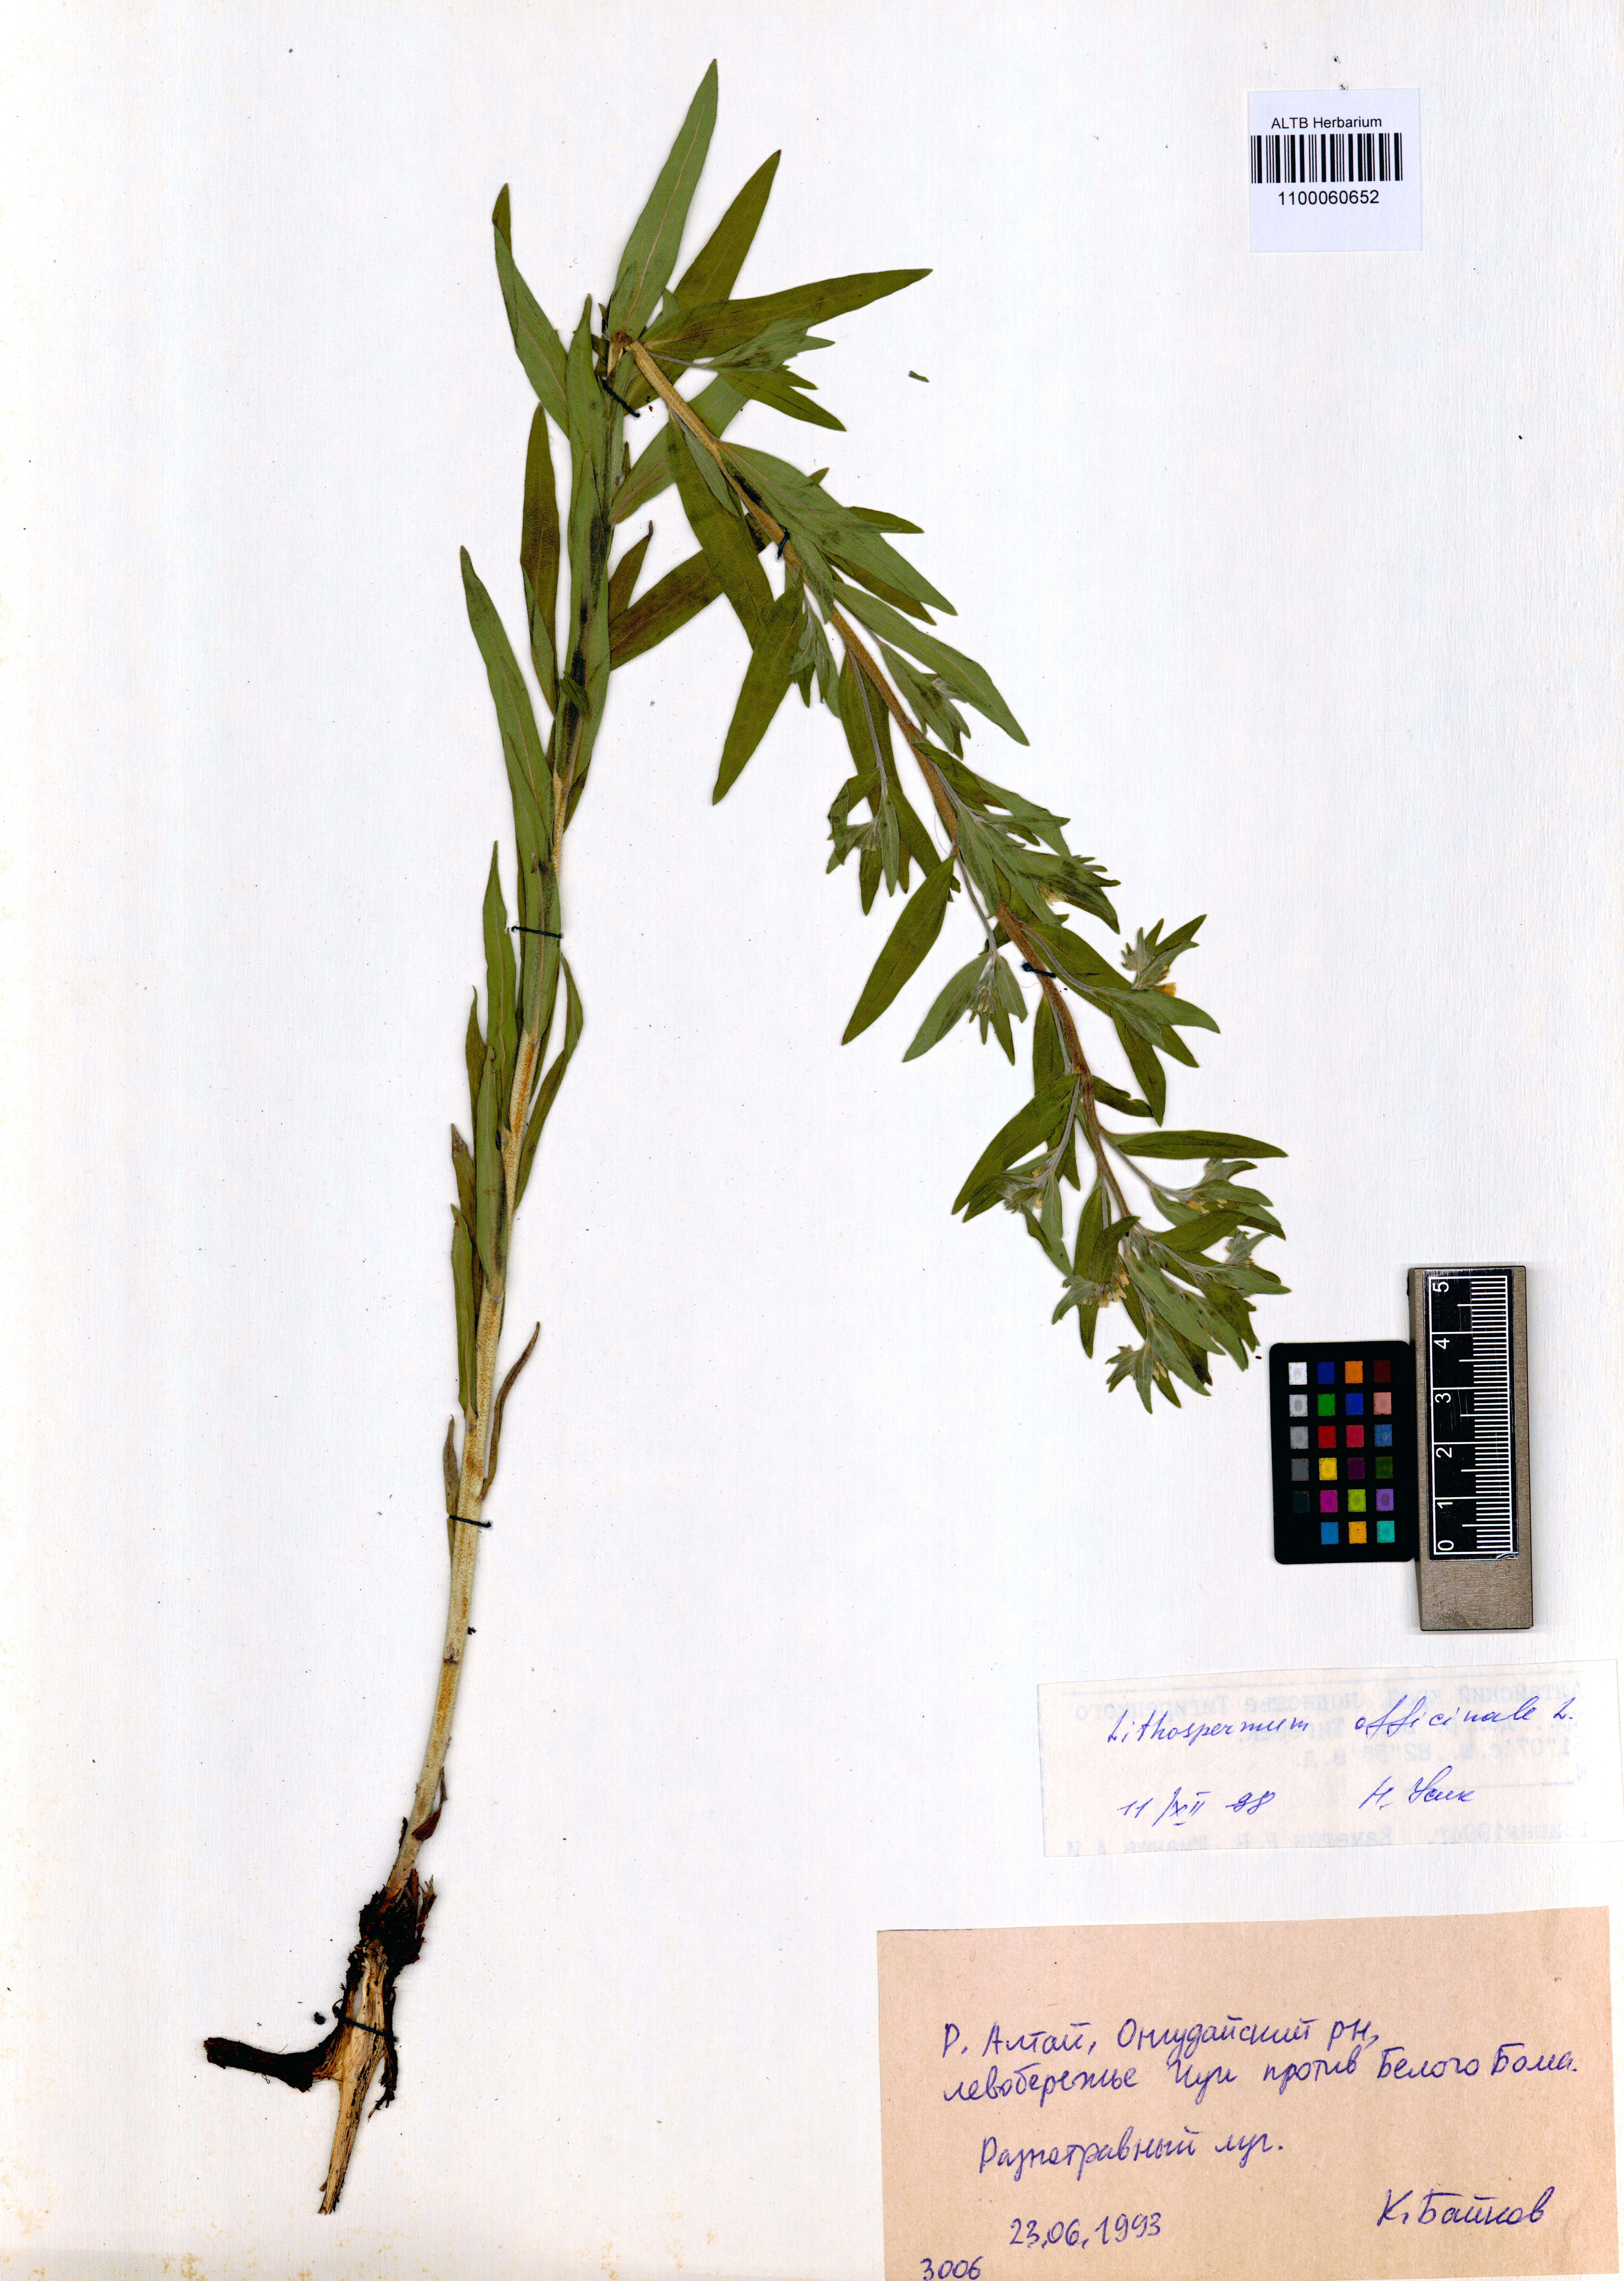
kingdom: Plantae
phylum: Tracheophyta
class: Magnoliopsida
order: Boraginales
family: Boraginaceae
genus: Lithospermum
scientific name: Lithospermum officinale
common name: Common gromwell
